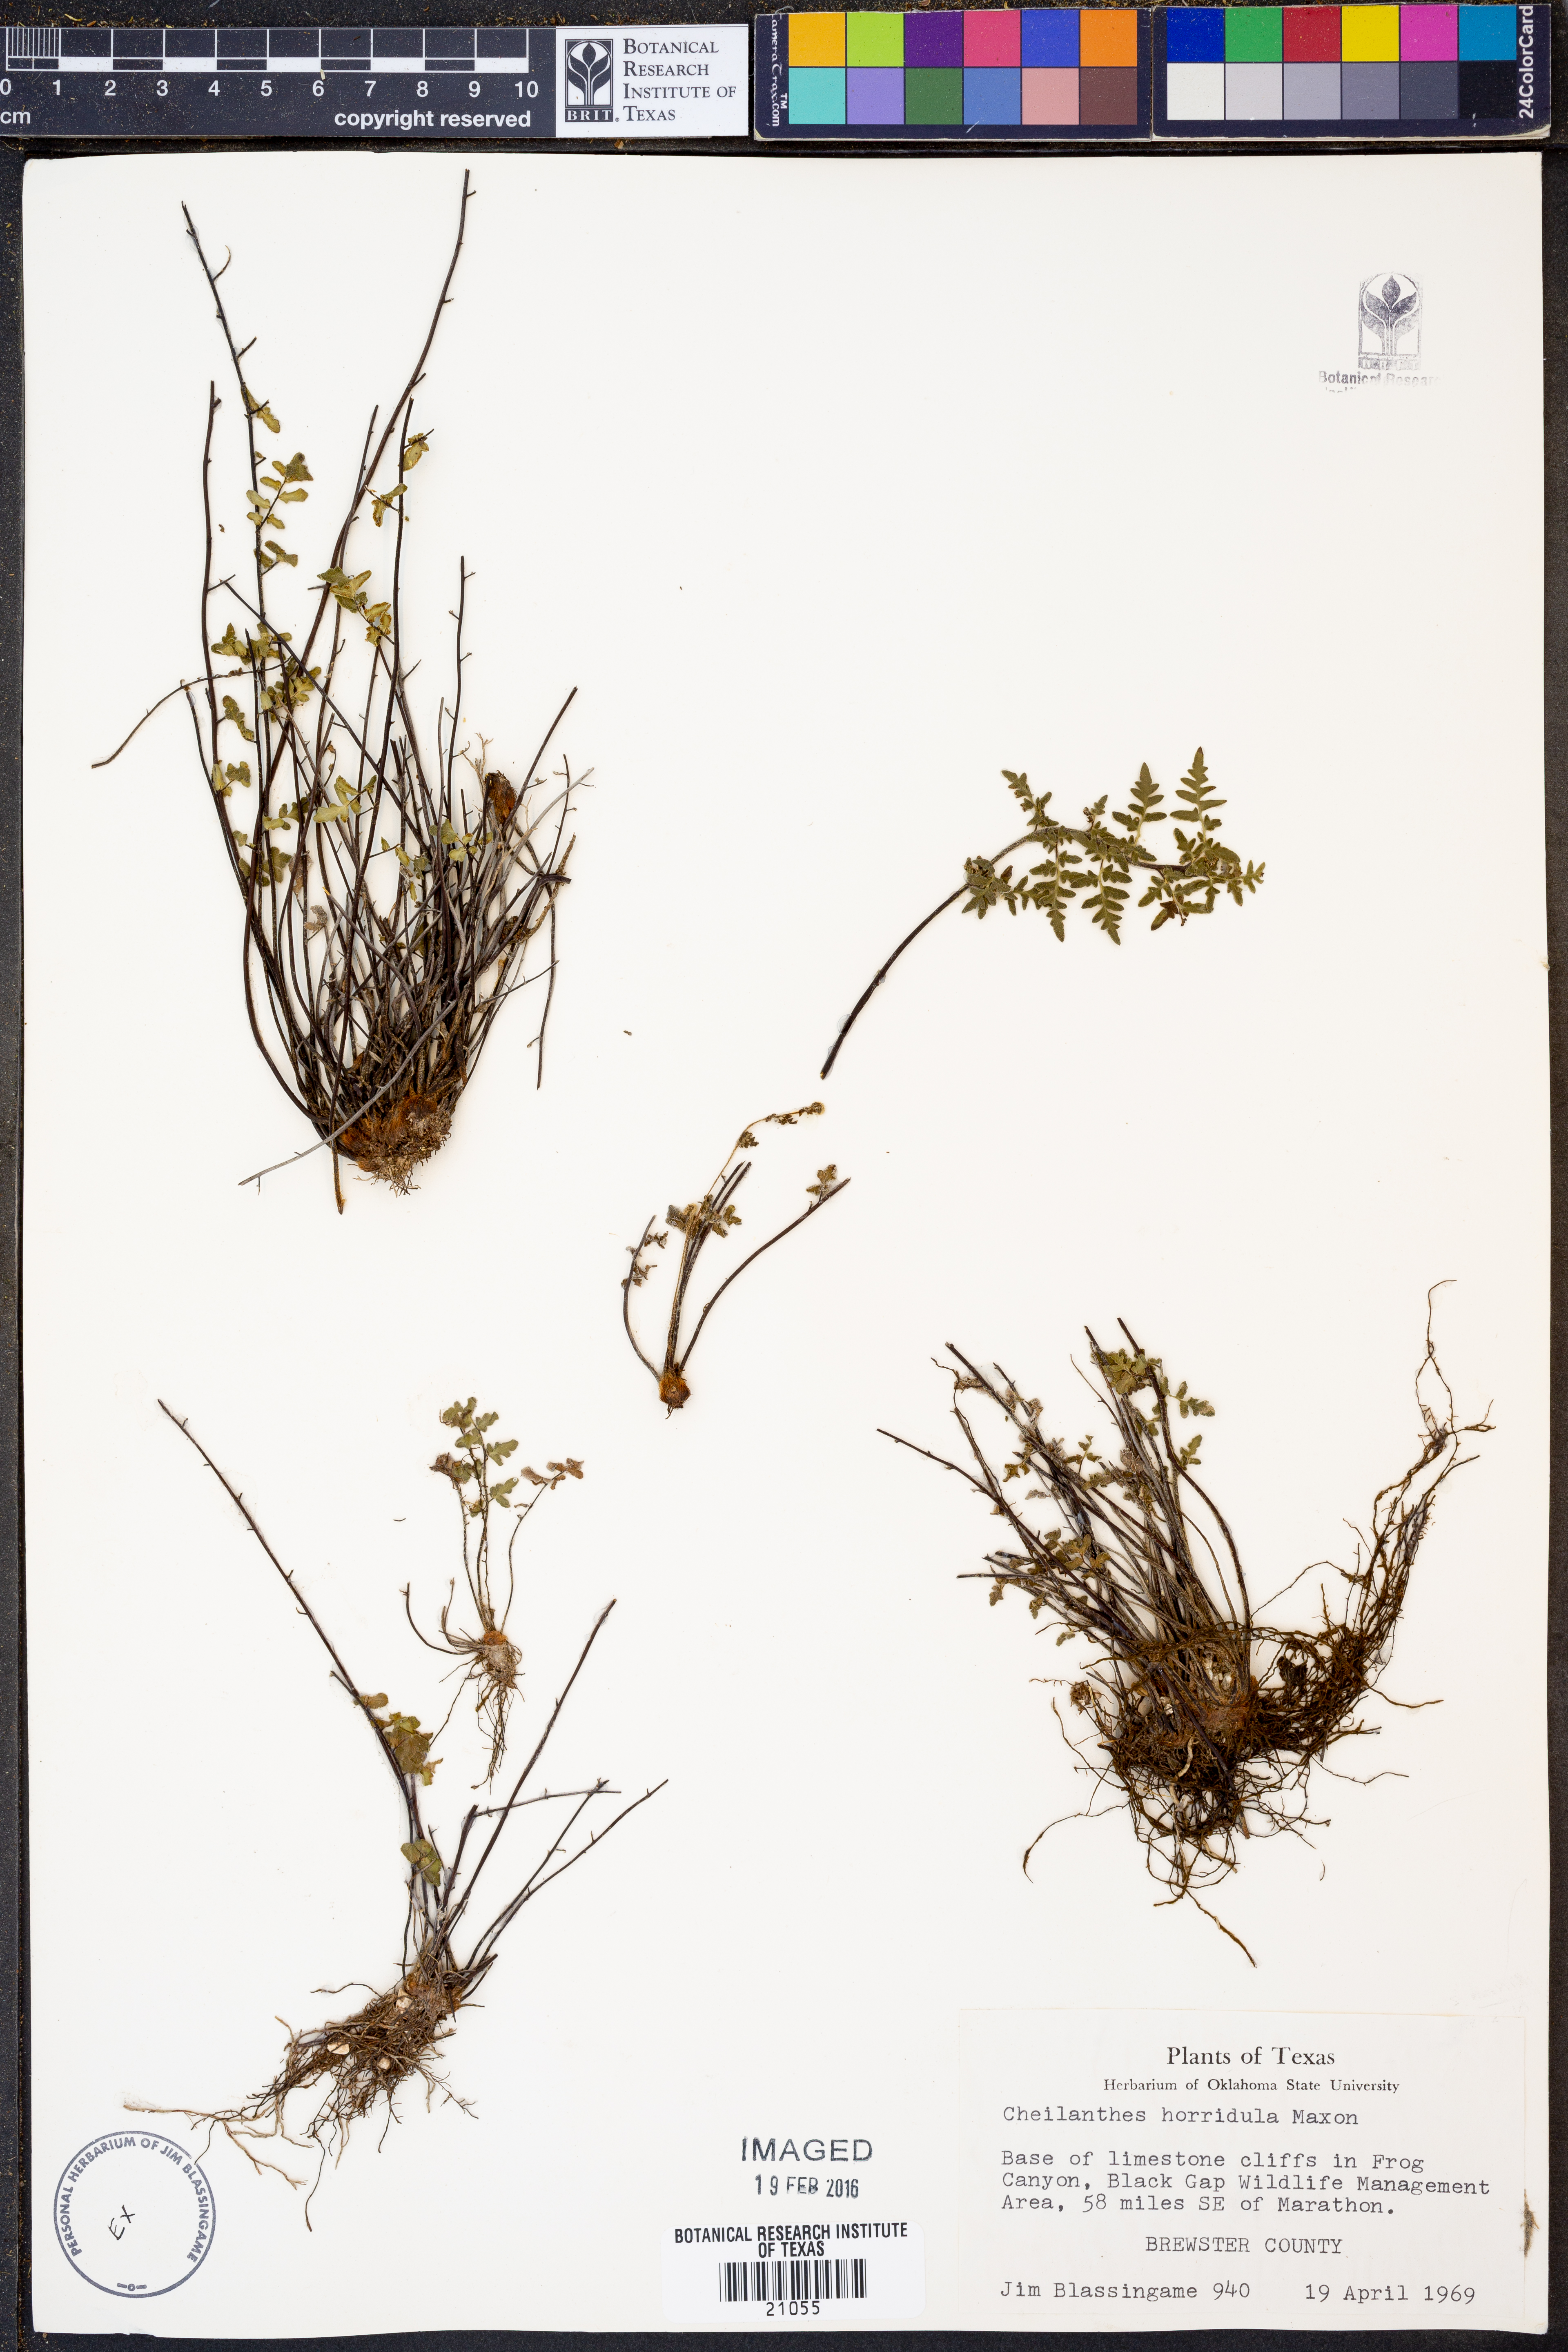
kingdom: Plantae
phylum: Tracheophyta
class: Polypodiopsida
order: Polypodiales
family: Pteridaceae
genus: Myriopteris
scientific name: Myriopteris scabra
